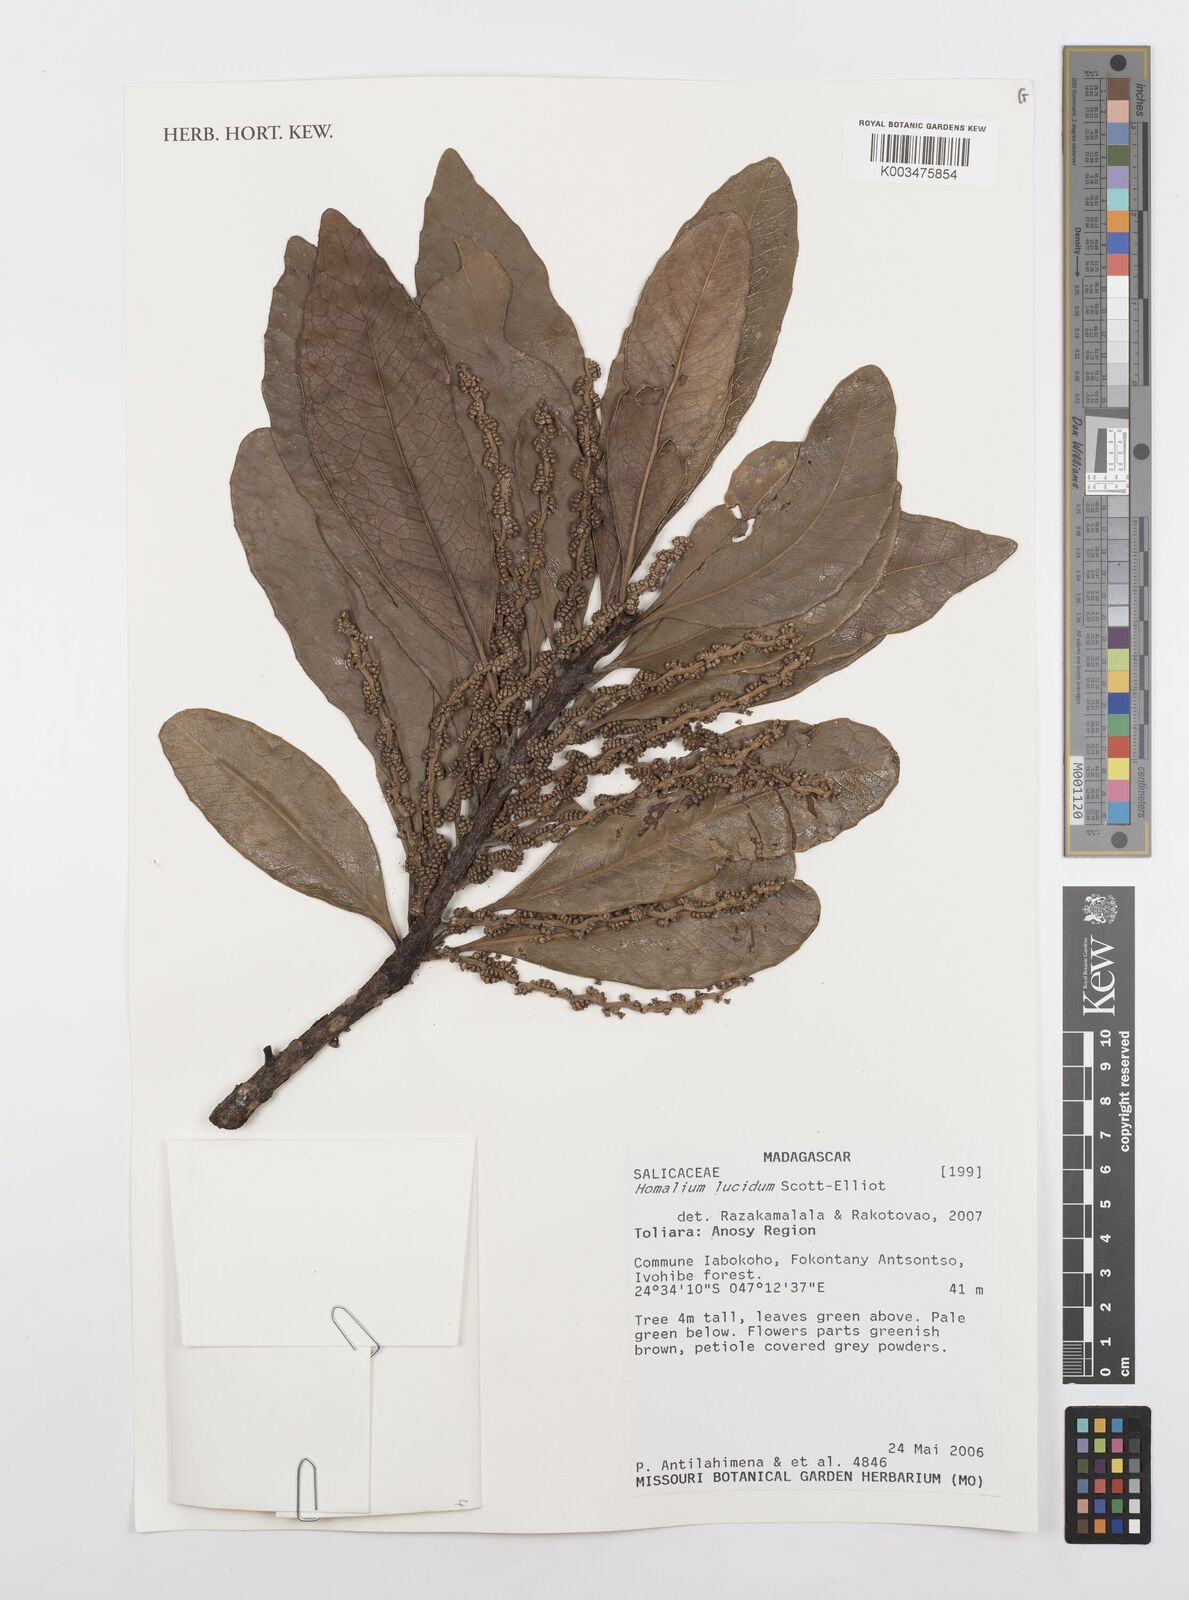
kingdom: Plantae
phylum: Tracheophyta
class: Magnoliopsida
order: Malpighiales
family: Salicaceae
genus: Homalium
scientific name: Homalium lucidum
